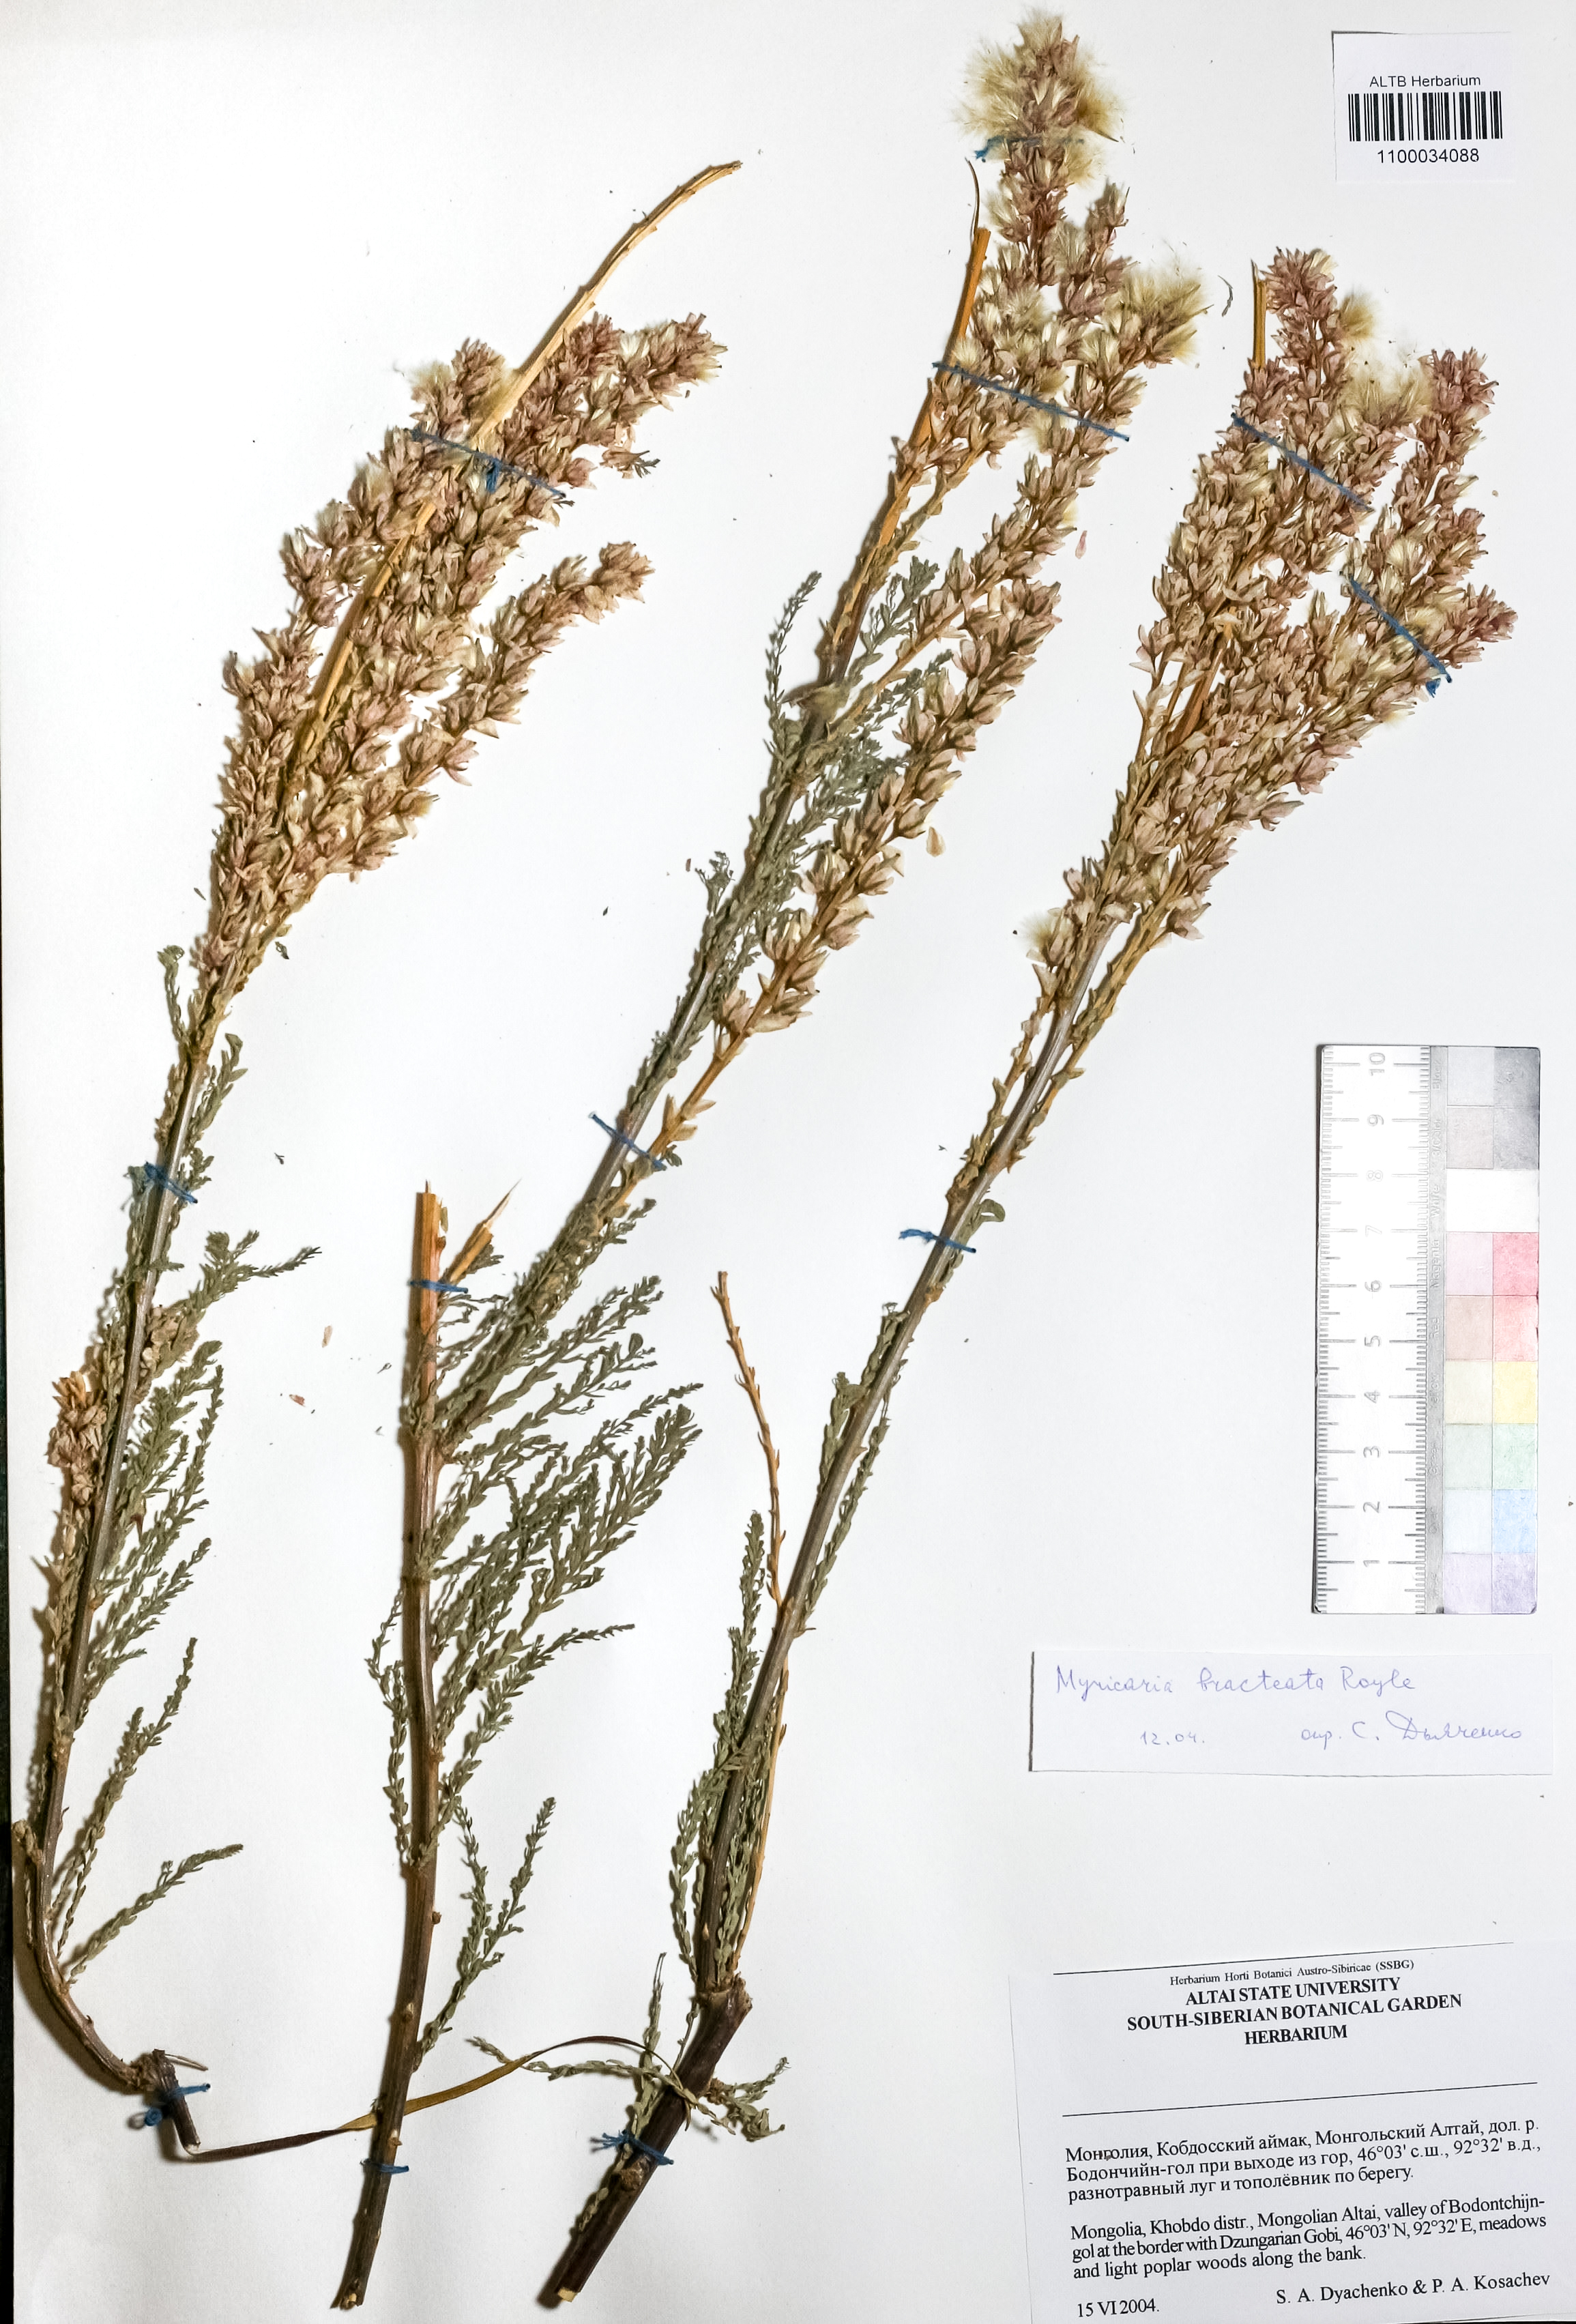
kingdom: Plantae
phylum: Tracheophyta
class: Magnoliopsida
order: Caryophyllales
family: Tamaricaceae
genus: Myricaria
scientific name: Myricaria bracteata
